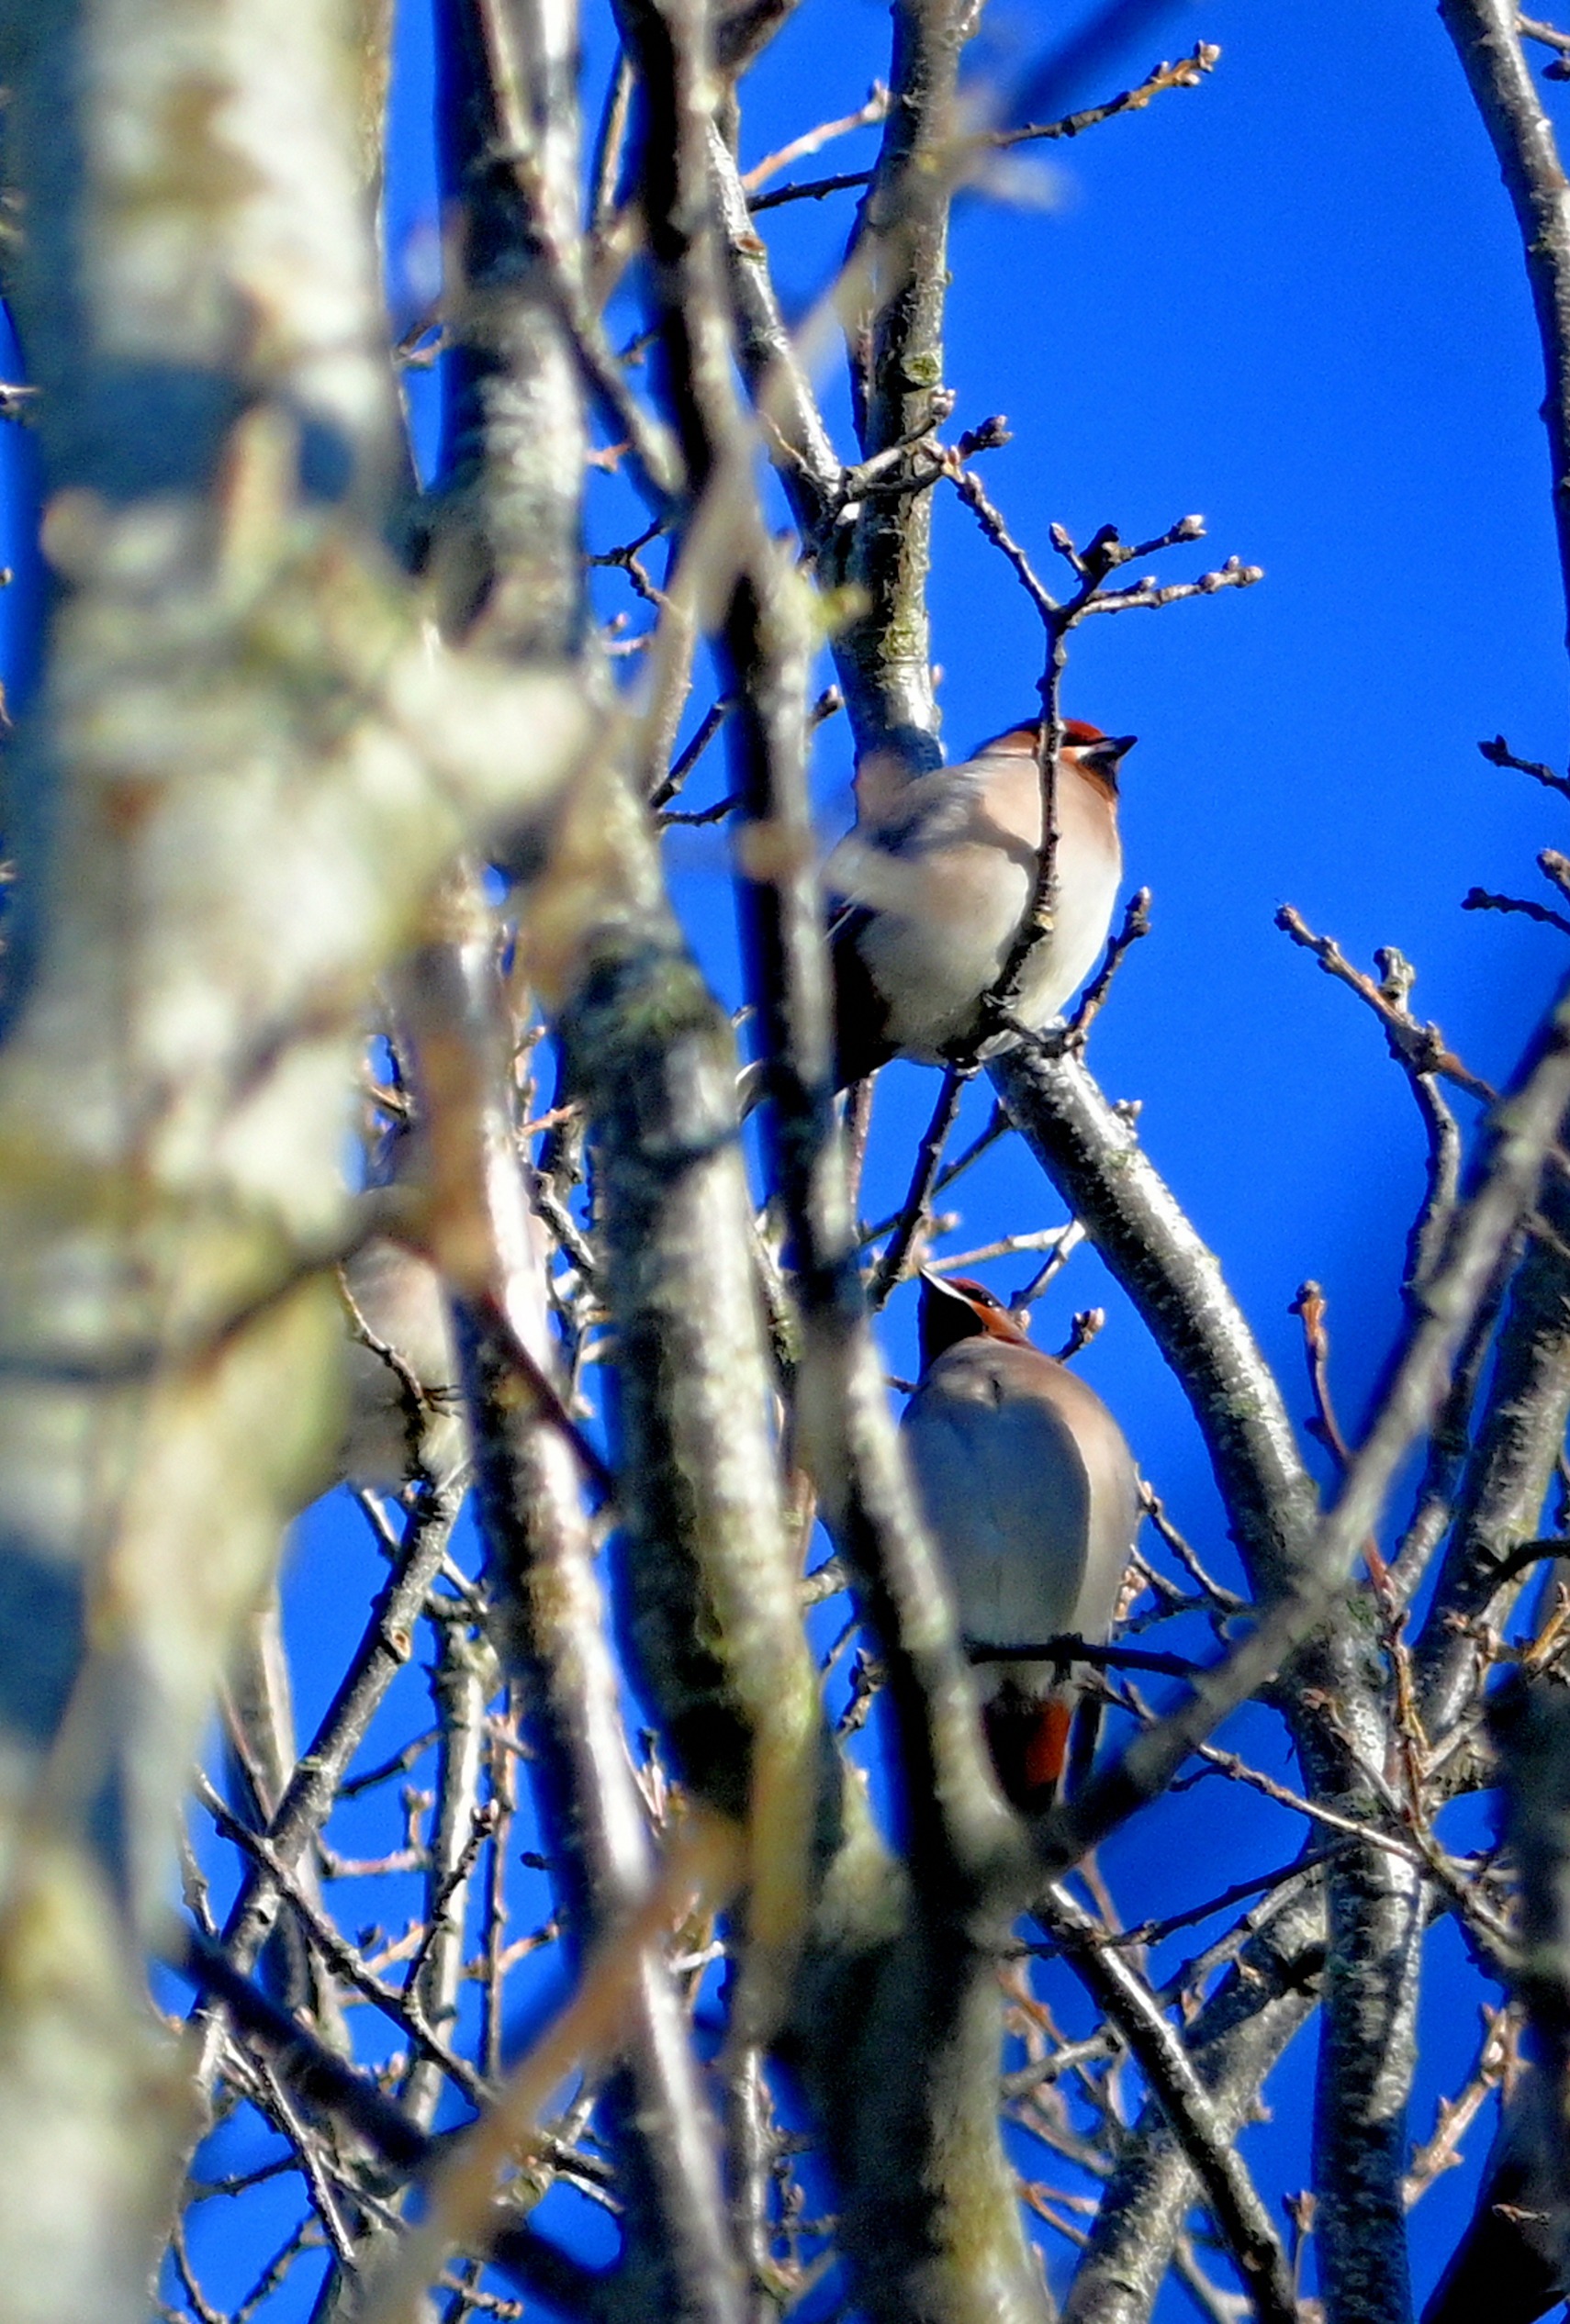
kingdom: Animalia
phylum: Chordata
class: Aves
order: Passeriformes
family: Bombycillidae
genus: Bombycilla
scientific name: Bombycilla garrulus
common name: Silkehale
